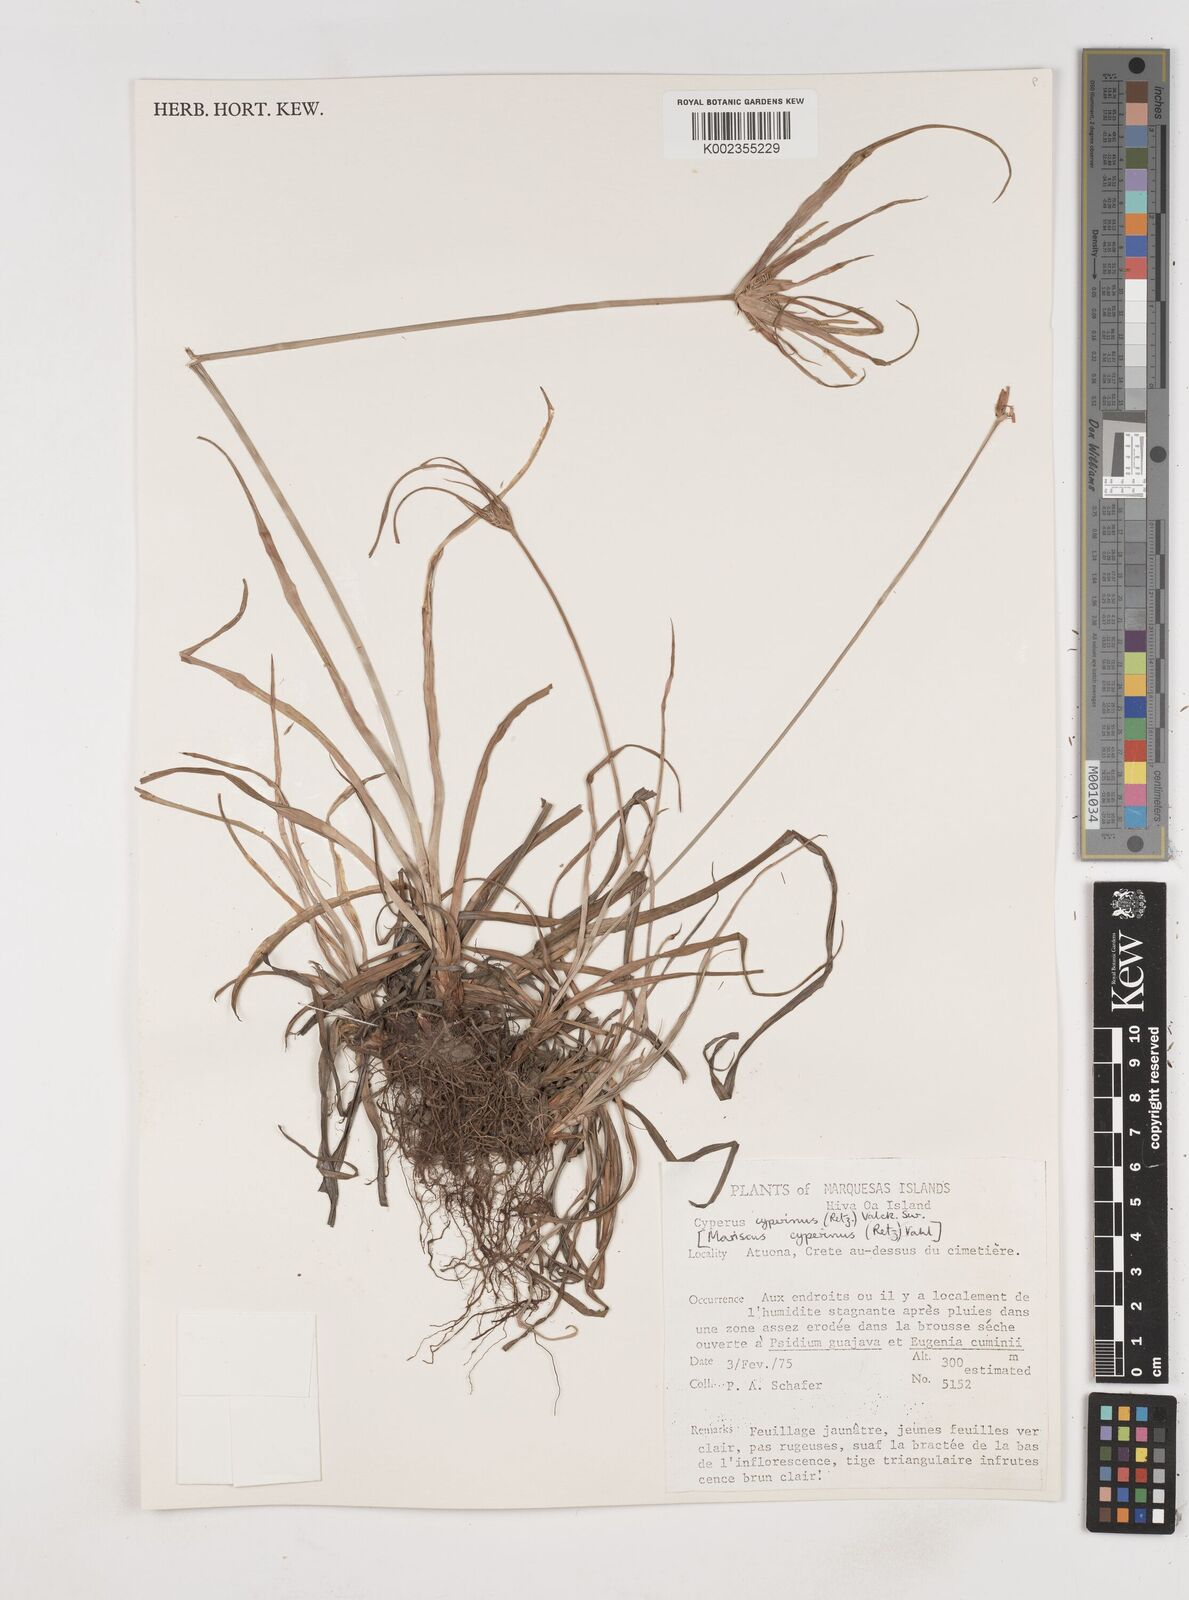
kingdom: Plantae
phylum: Tracheophyta
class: Liliopsida
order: Poales
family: Cyperaceae
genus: Cyperus
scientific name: Cyperus cyperinus
